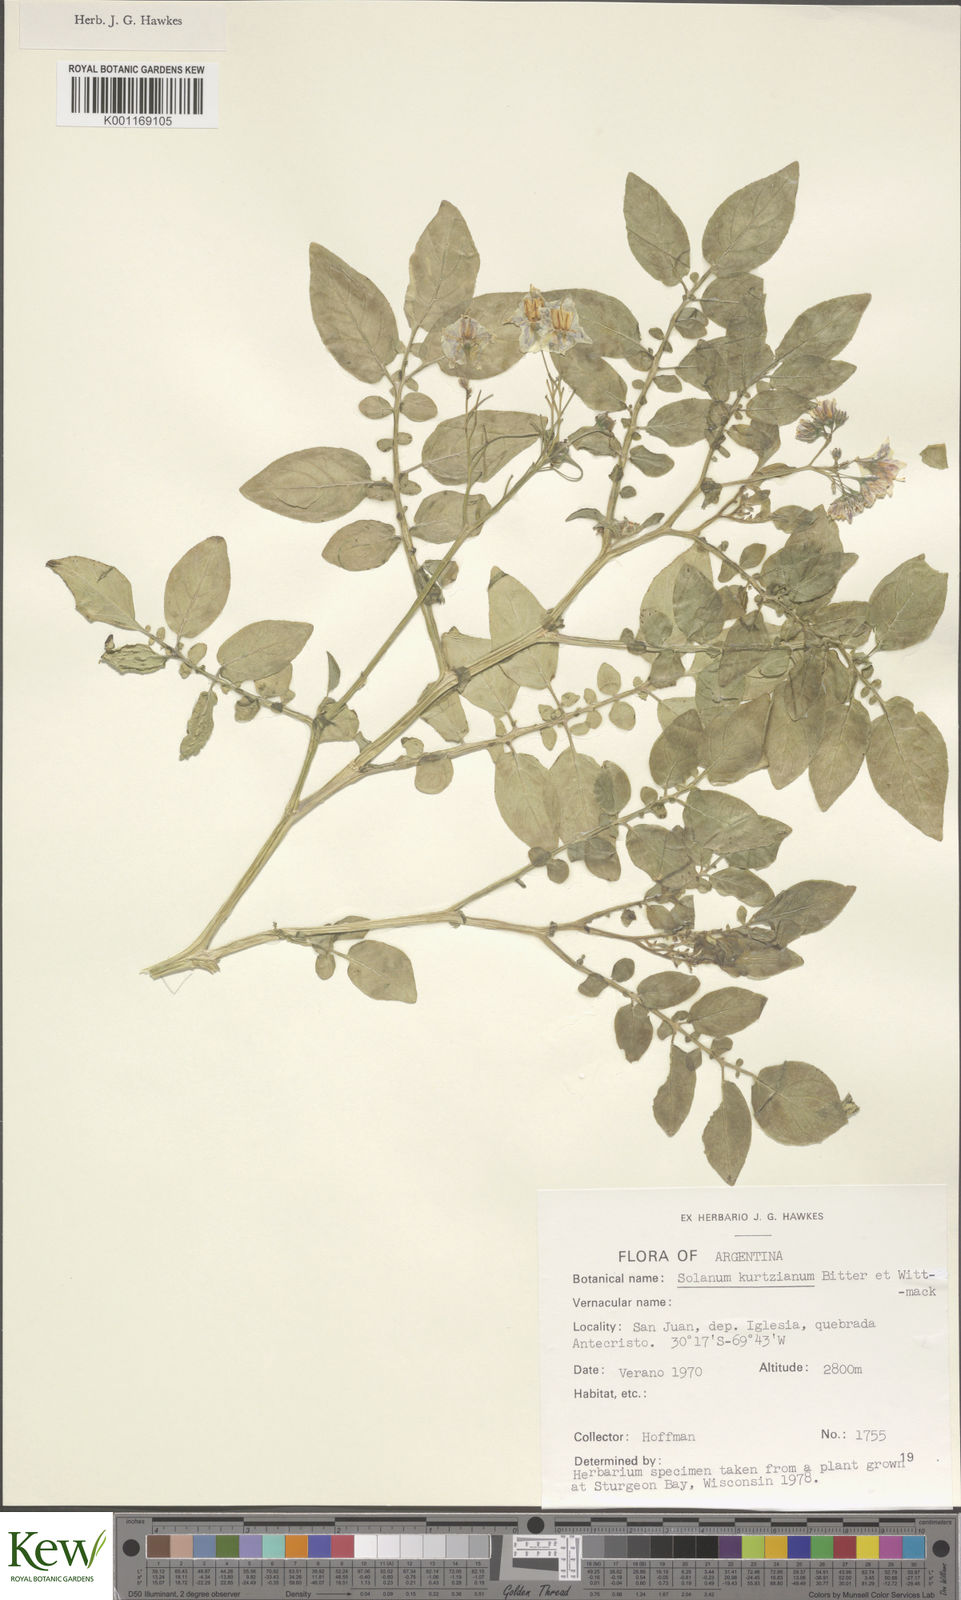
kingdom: Plantae
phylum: Tracheophyta
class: Magnoliopsida
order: Solanales
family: Solanaceae
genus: Solanum
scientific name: Solanum kurtzianum
